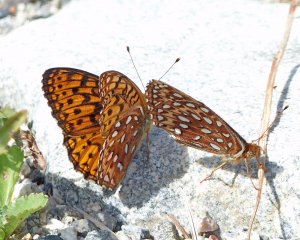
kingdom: Animalia
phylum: Arthropoda
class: Insecta
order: Lepidoptera
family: Nymphalidae
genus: Speyeria
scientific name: Speyeria atlantis
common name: Northwestern Fritillary
